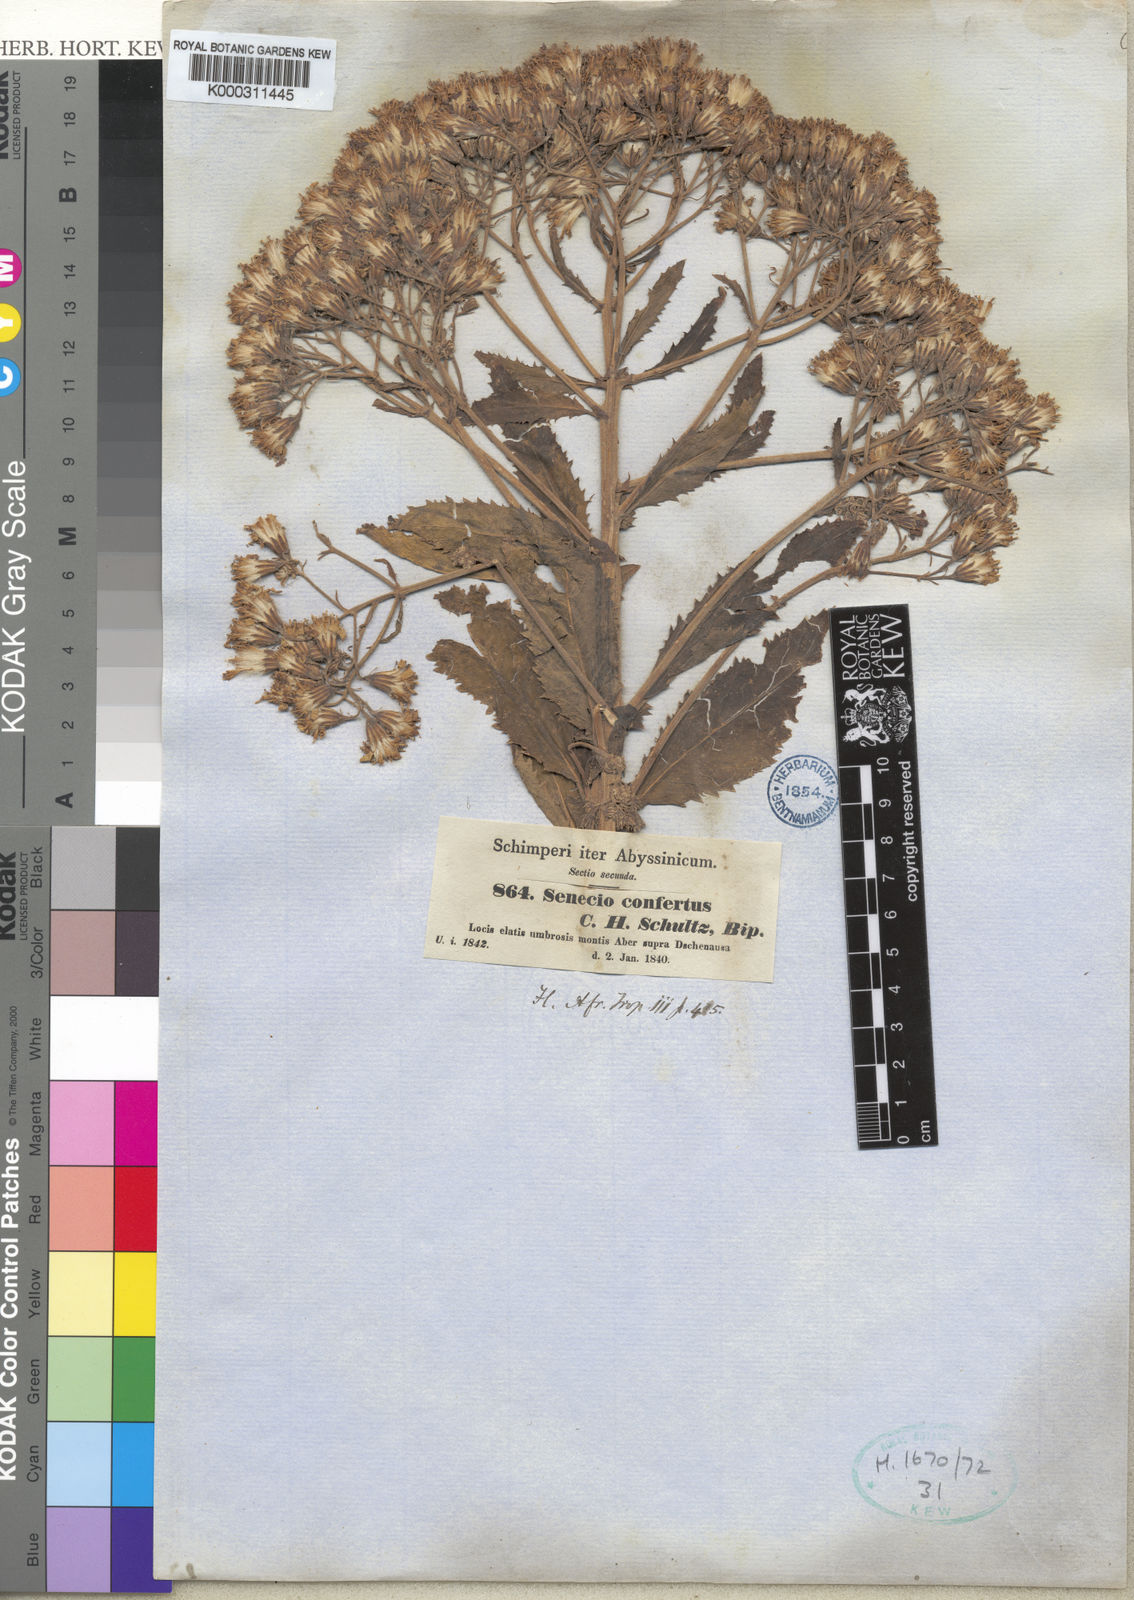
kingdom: Plantae
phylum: Tracheophyta
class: Magnoliopsida
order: Asterales
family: Asteraceae
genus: Senecio
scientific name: Senecio confertus
